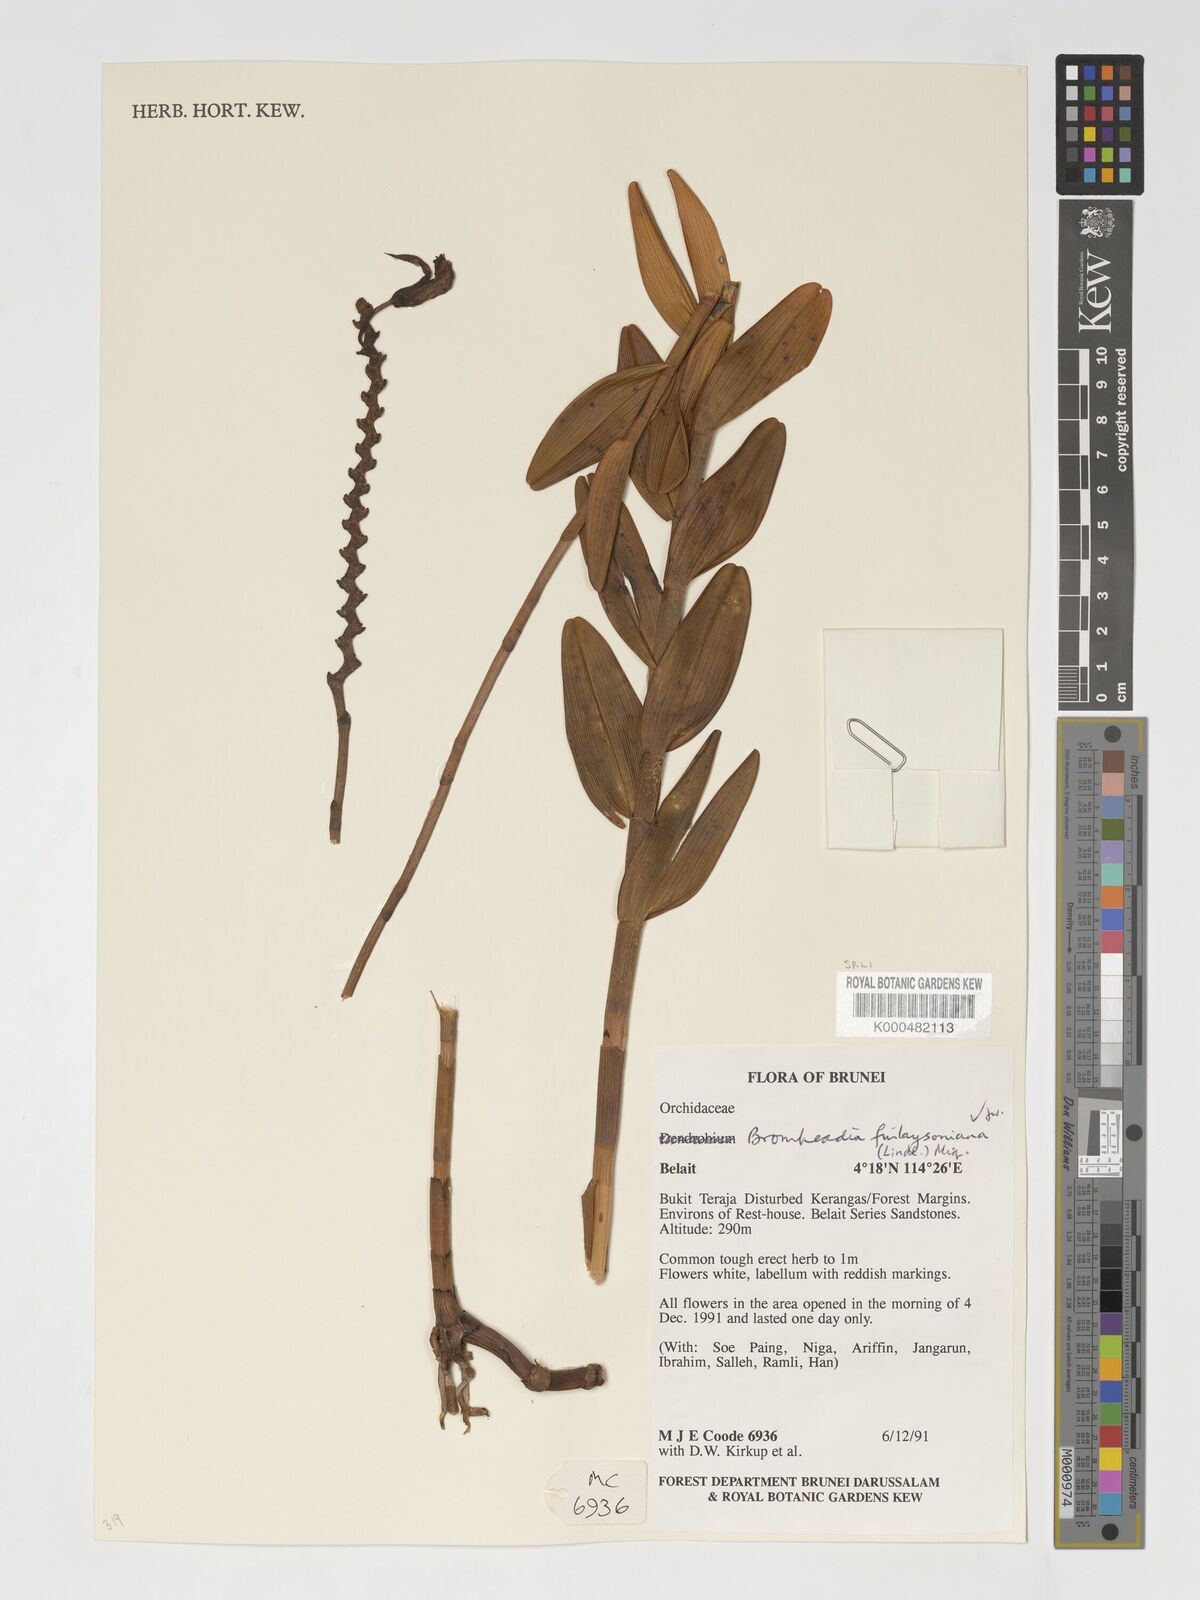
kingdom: Plantae
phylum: Tracheophyta
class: Liliopsida
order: Asparagales
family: Orchidaceae
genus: Bromheadia
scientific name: Bromheadia finlaysoniana
